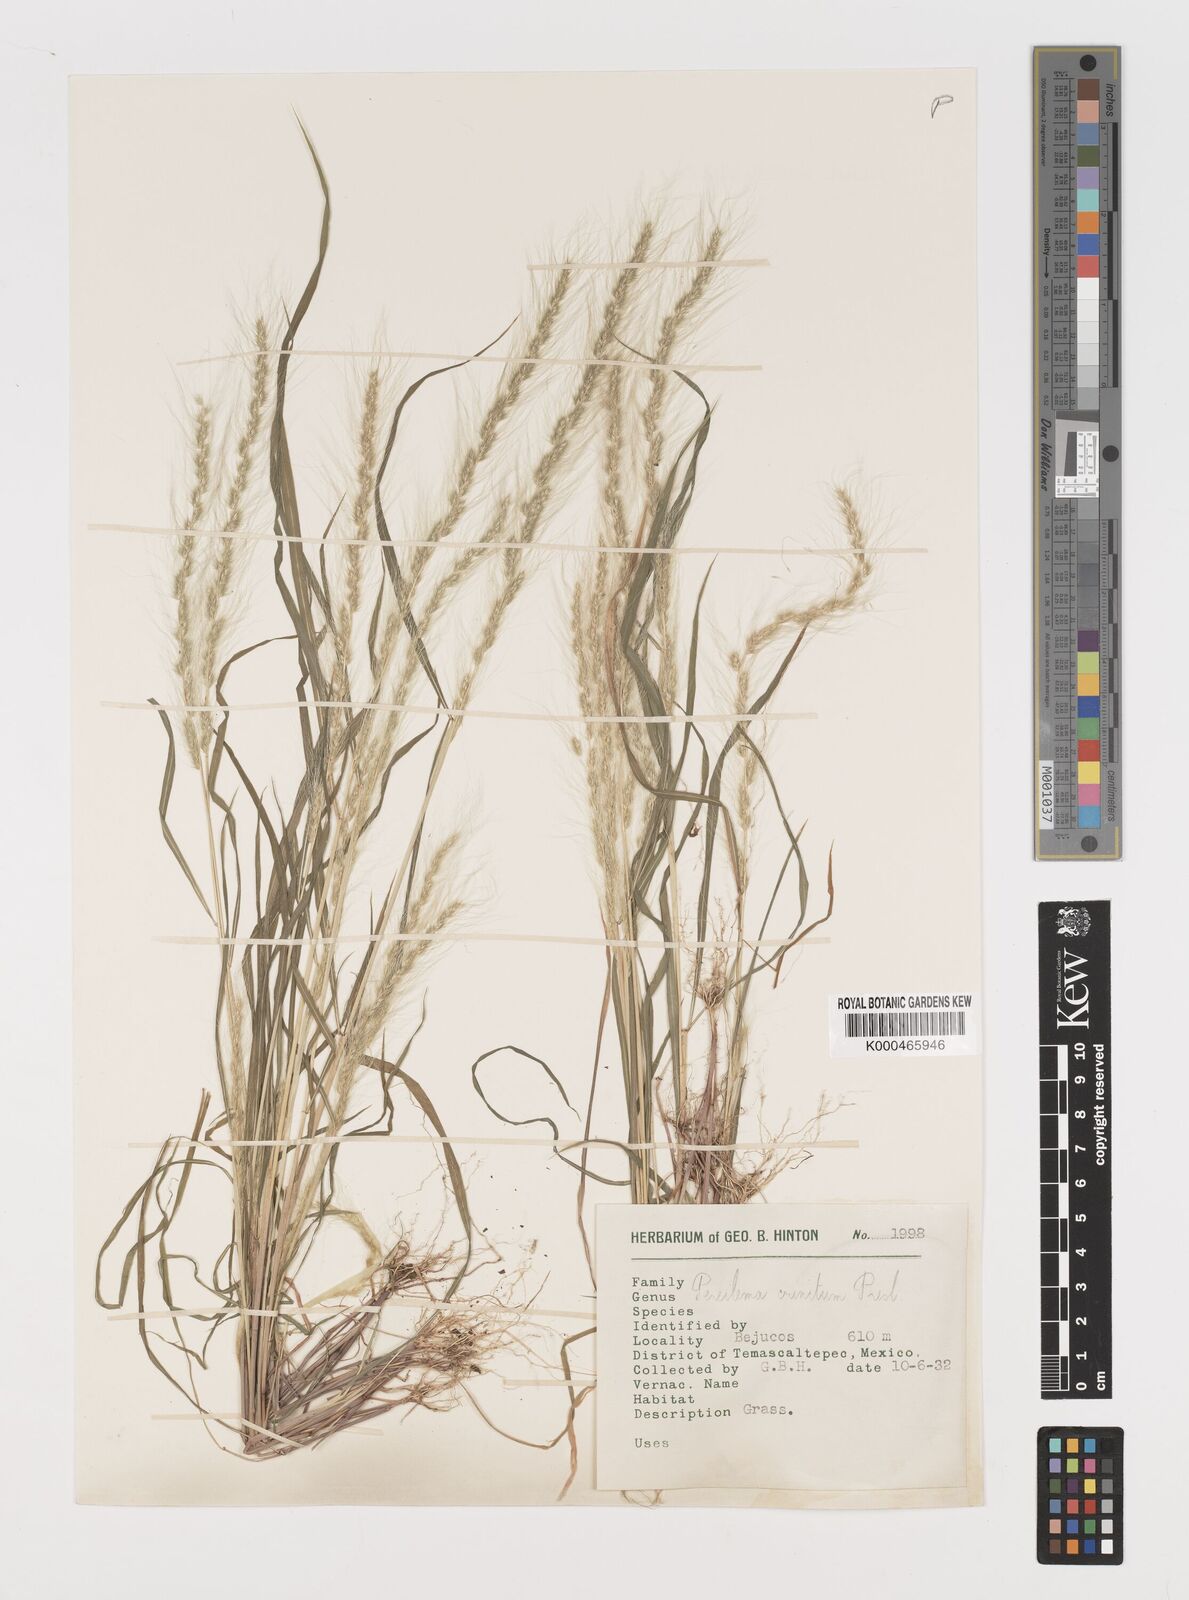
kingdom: Plantae
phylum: Tracheophyta
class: Liliopsida
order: Poales
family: Poaceae
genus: Muhlenbergia
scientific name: Muhlenbergia pereilema
